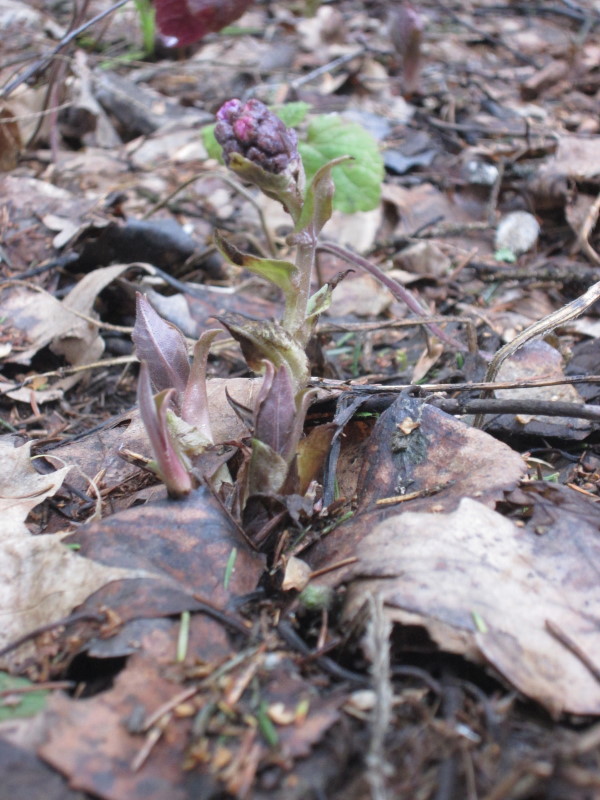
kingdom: Plantae
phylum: Tracheophyta
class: Magnoliopsida
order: Boraginales
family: Boraginaceae
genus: Pulmonaria
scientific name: Pulmonaria obscura
